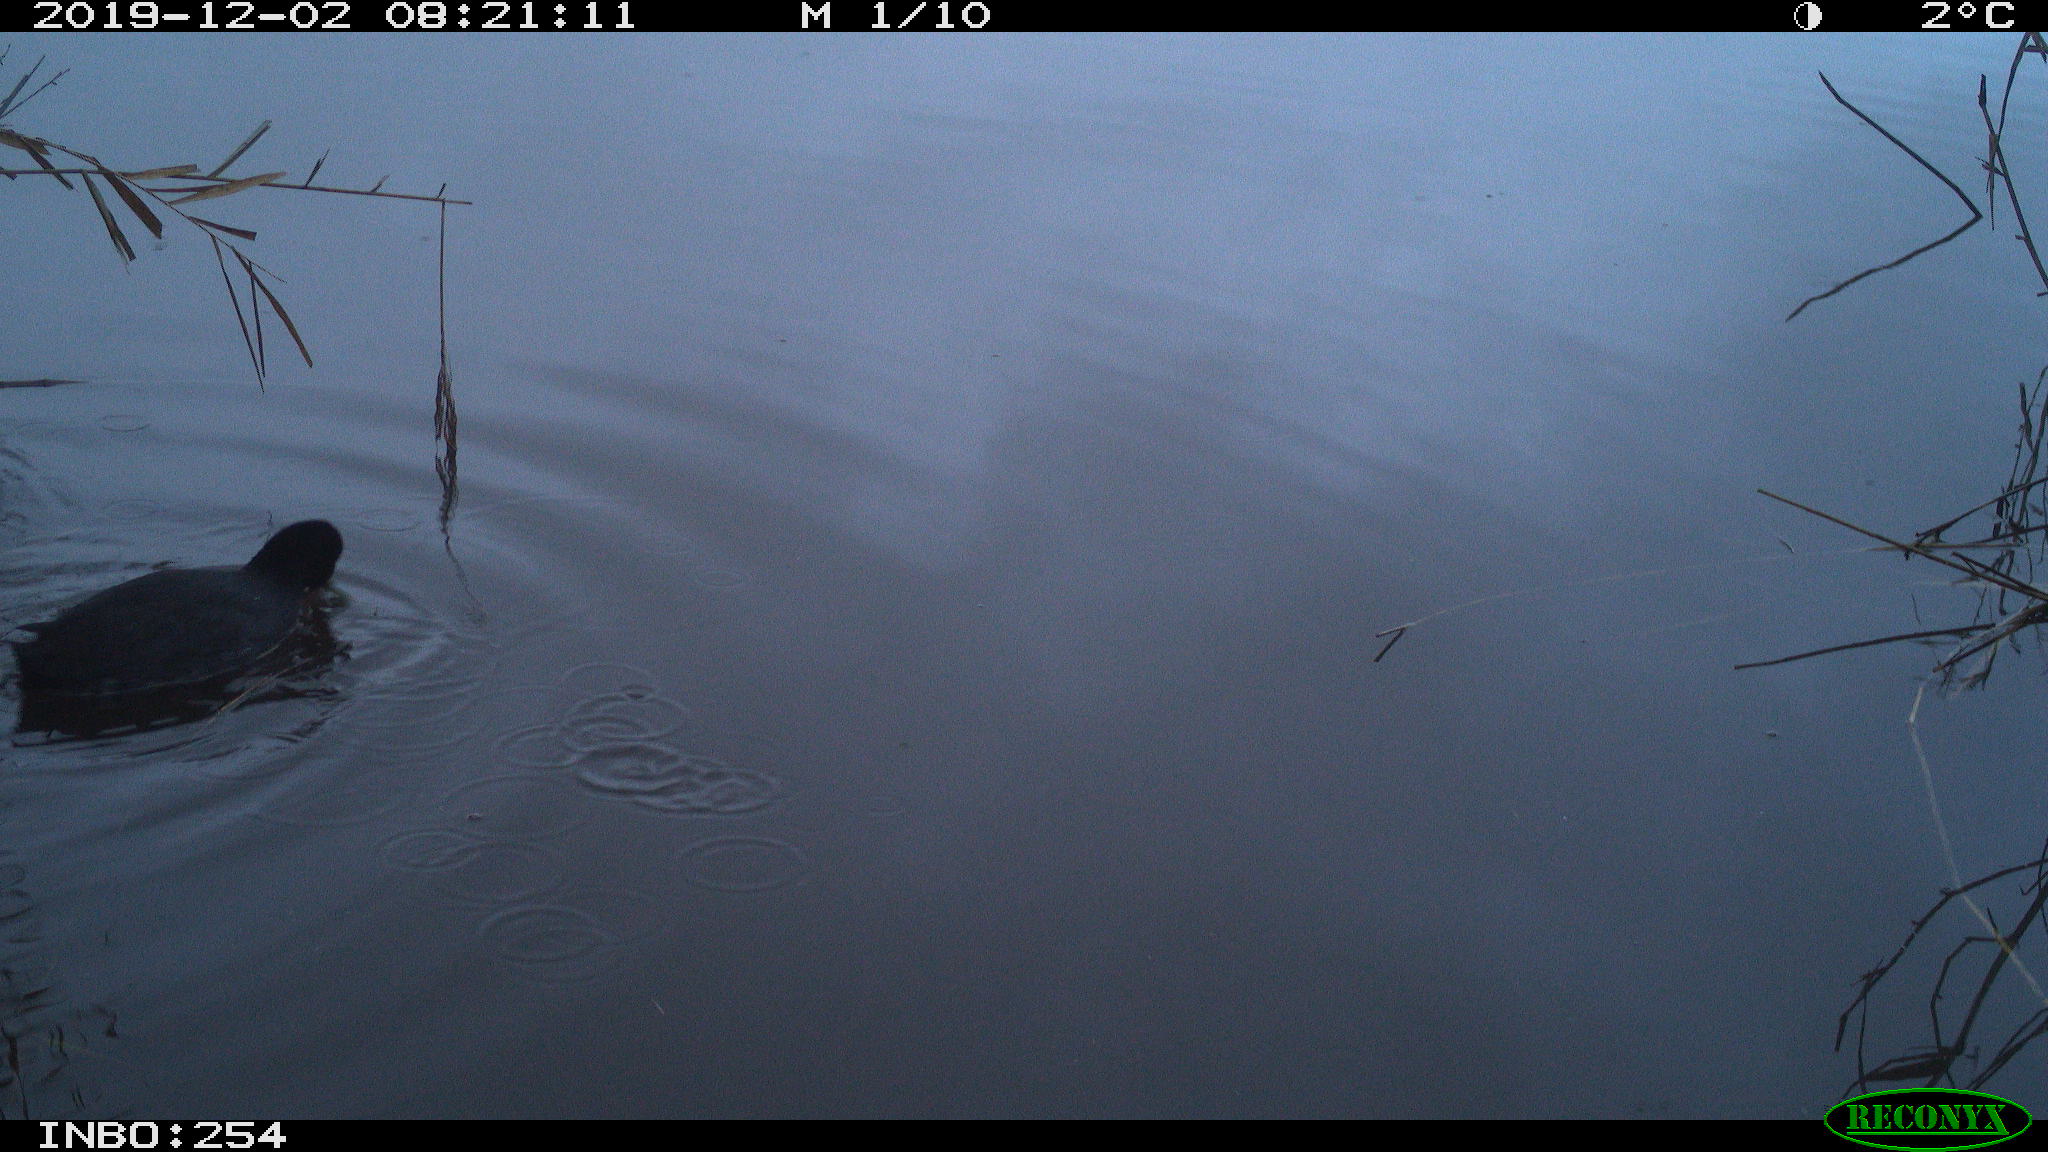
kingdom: Animalia
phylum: Chordata
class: Aves
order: Gruiformes
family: Rallidae
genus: Gallinula
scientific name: Gallinula chloropus
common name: Common moorhen
